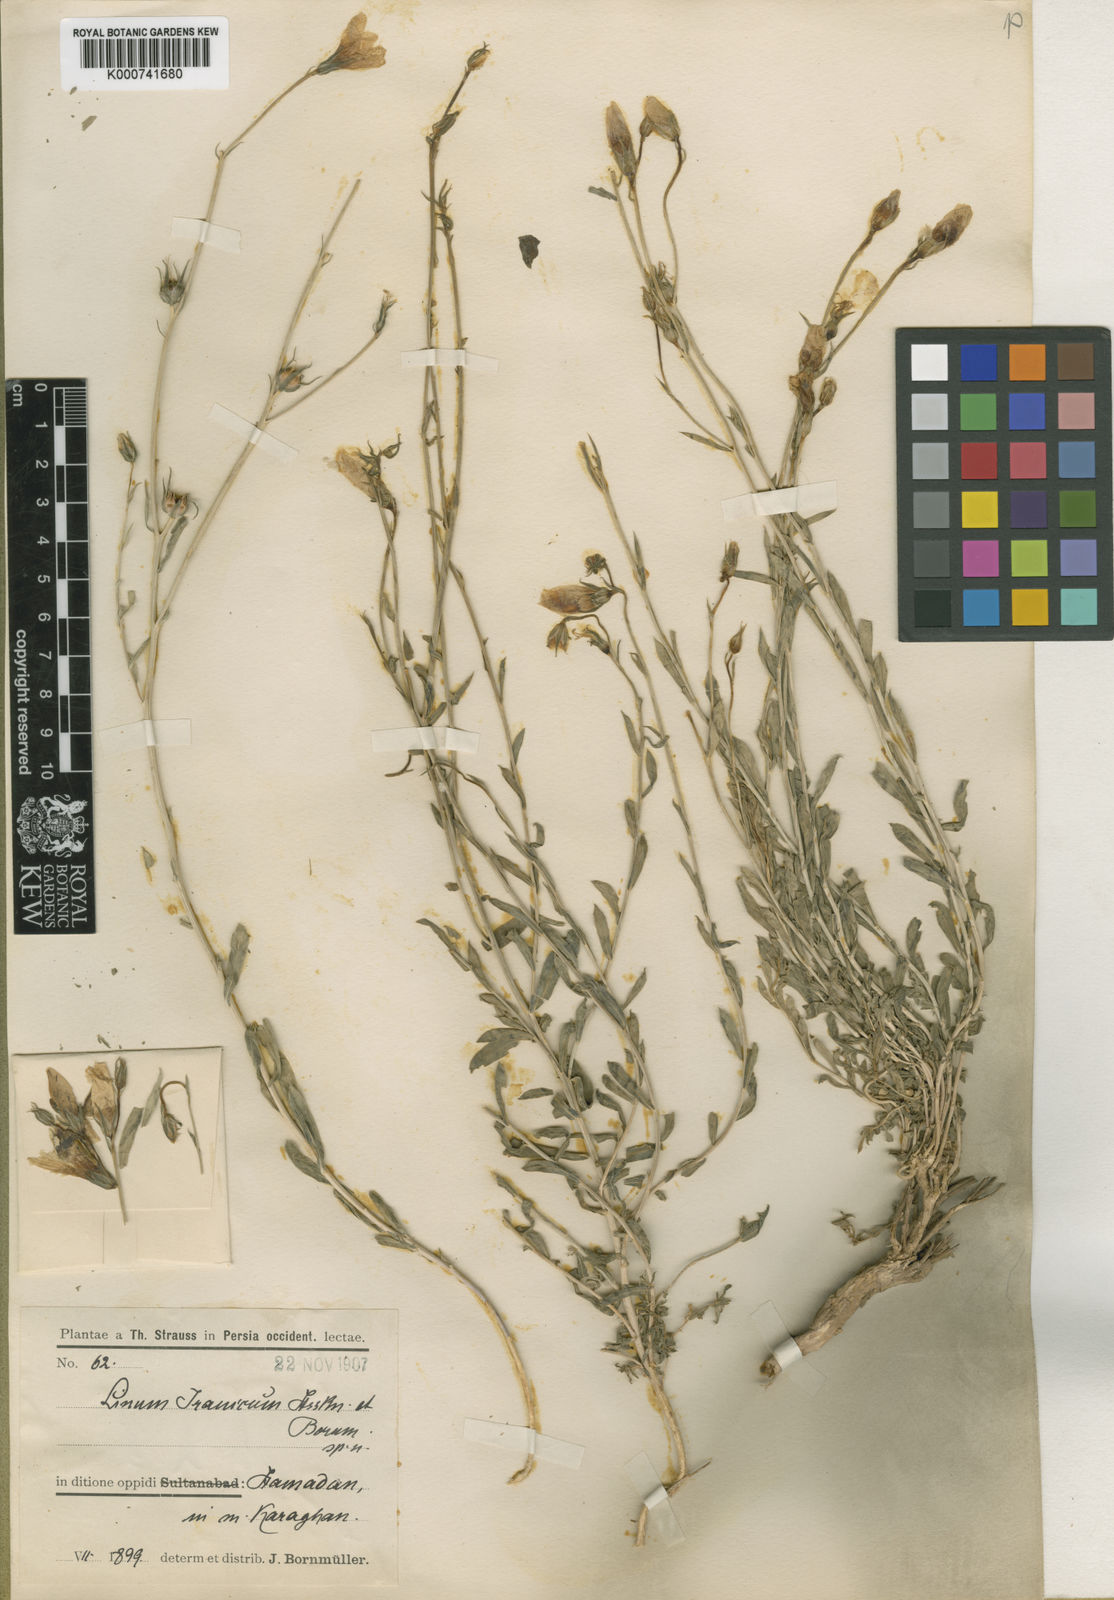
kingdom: Plantae
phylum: Tracheophyta
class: Magnoliopsida
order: Malpighiales
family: Linaceae
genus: Linum
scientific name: Linum iranicum
